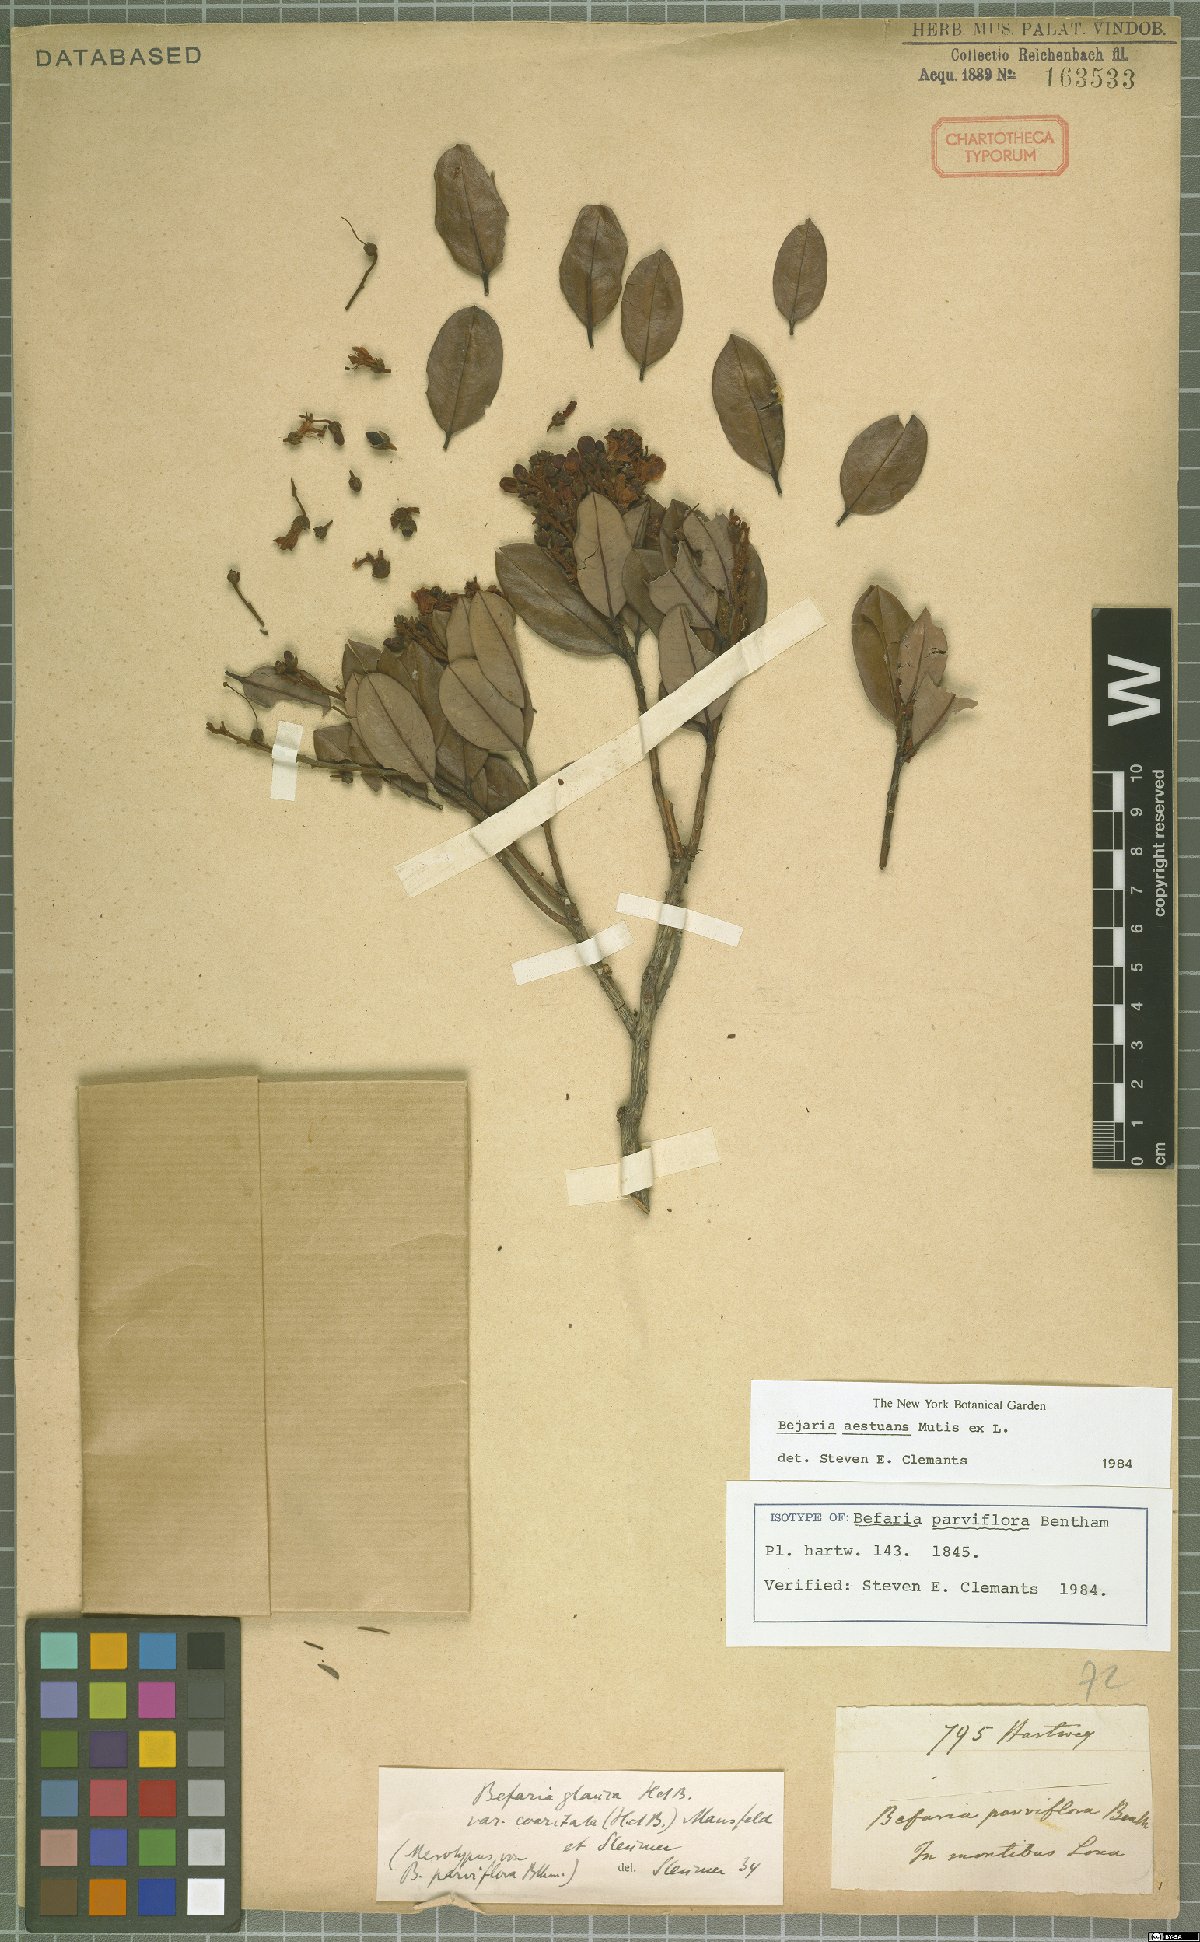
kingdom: Plantae
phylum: Tracheophyta
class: Magnoliopsida
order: Ericales
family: Ericaceae
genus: Bejaria
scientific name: Bejaria aestuans
